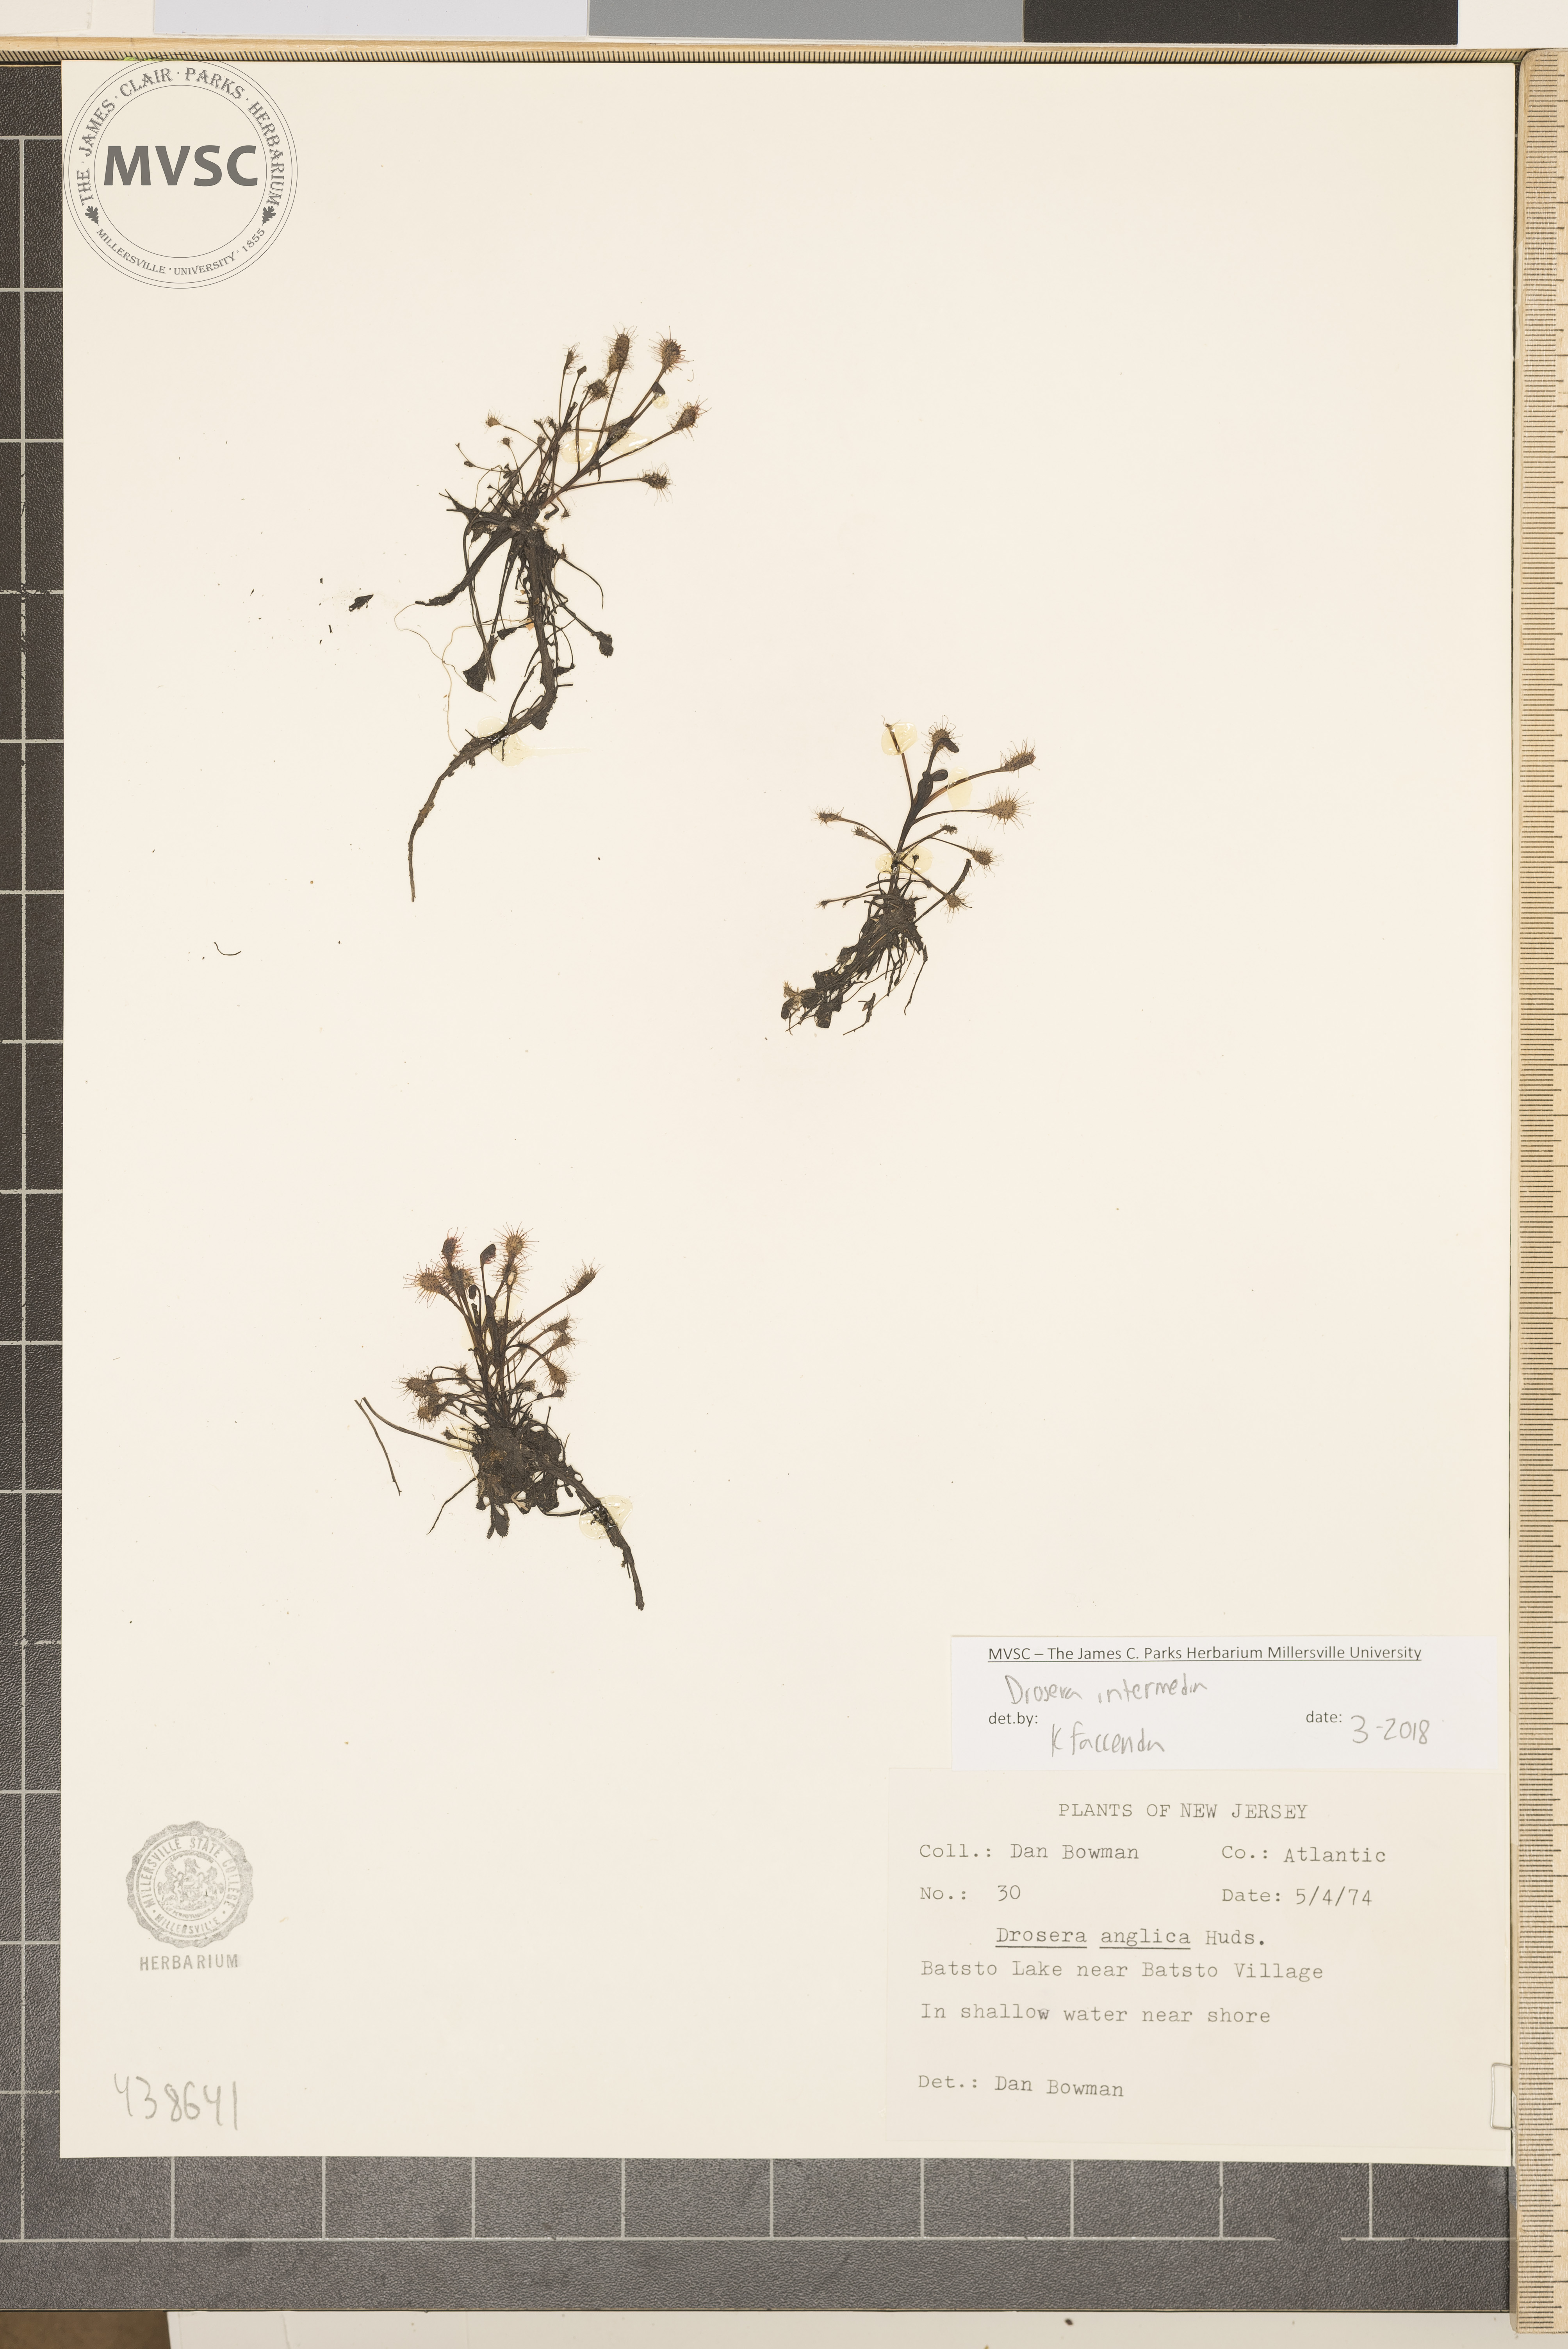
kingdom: Plantae
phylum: Tracheophyta
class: Magnoliopsida
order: Caryophyllales
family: Droseraceae
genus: Drosera
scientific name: Drosera intermedia
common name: Oblong-leaved sundew
